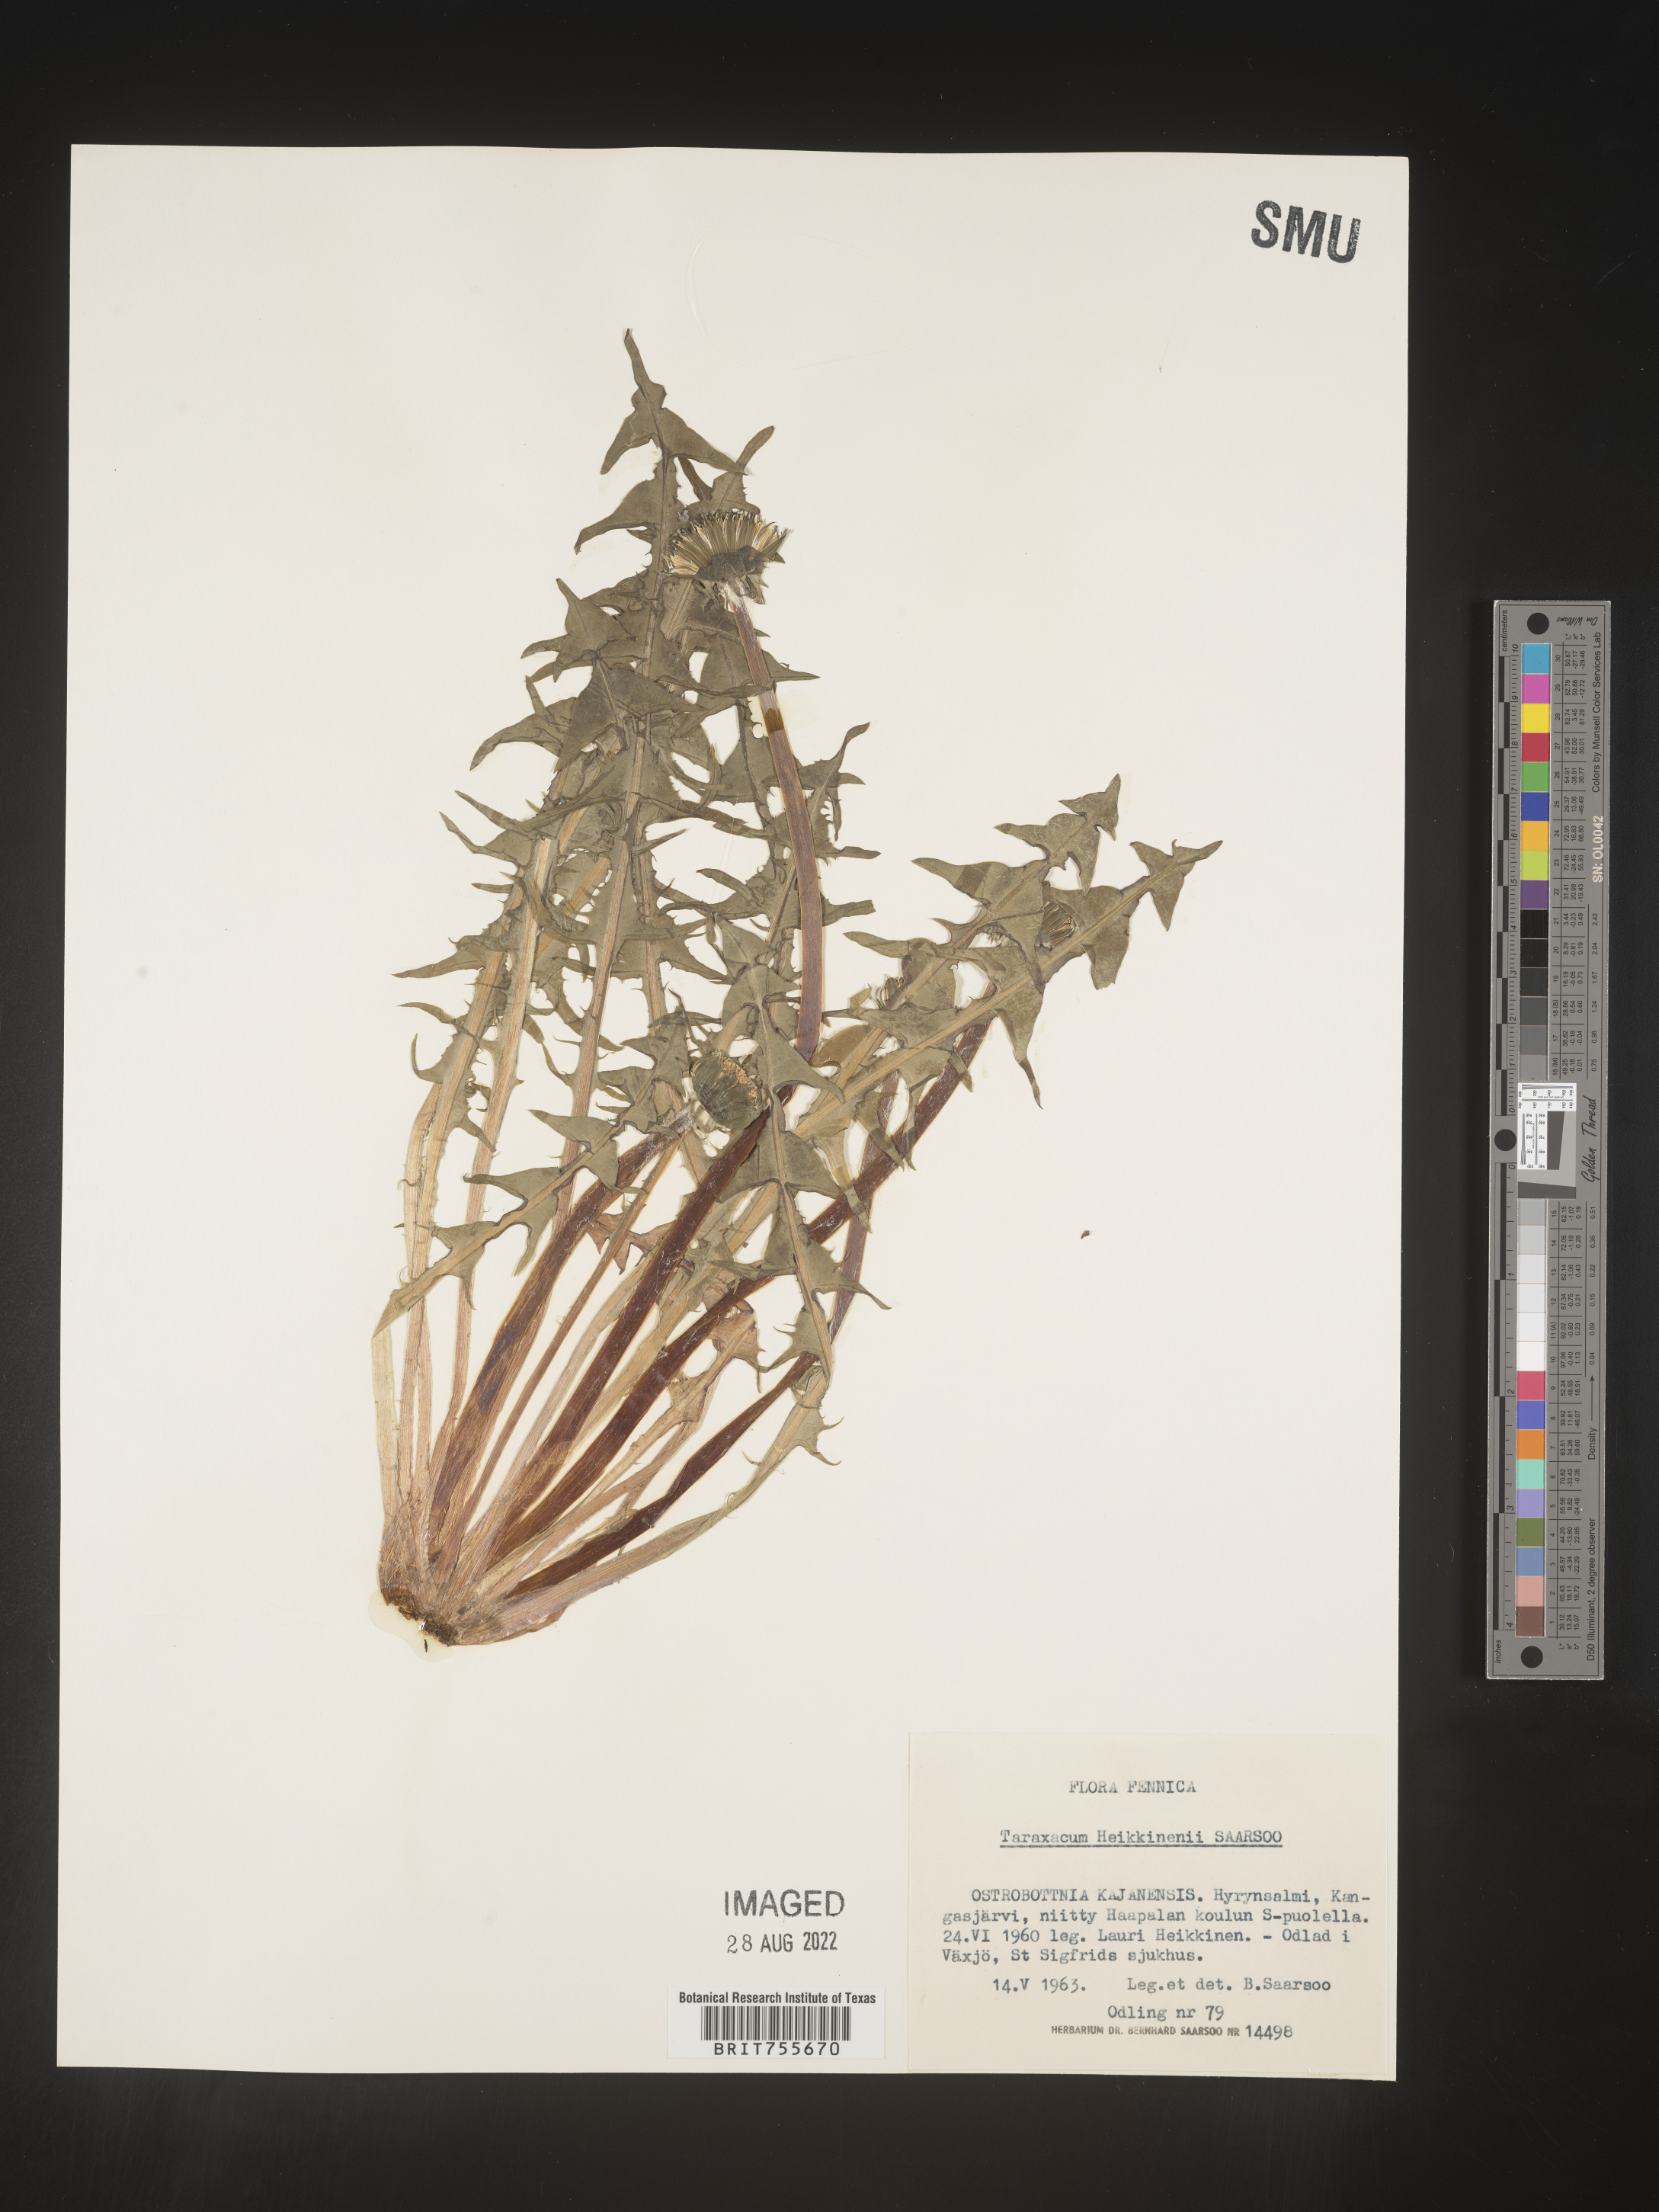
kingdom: Plantae
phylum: Tracheophyta
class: Magnoliopsida
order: Asterales
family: Asteraceae
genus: Taraxacum
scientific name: Taraxacum
